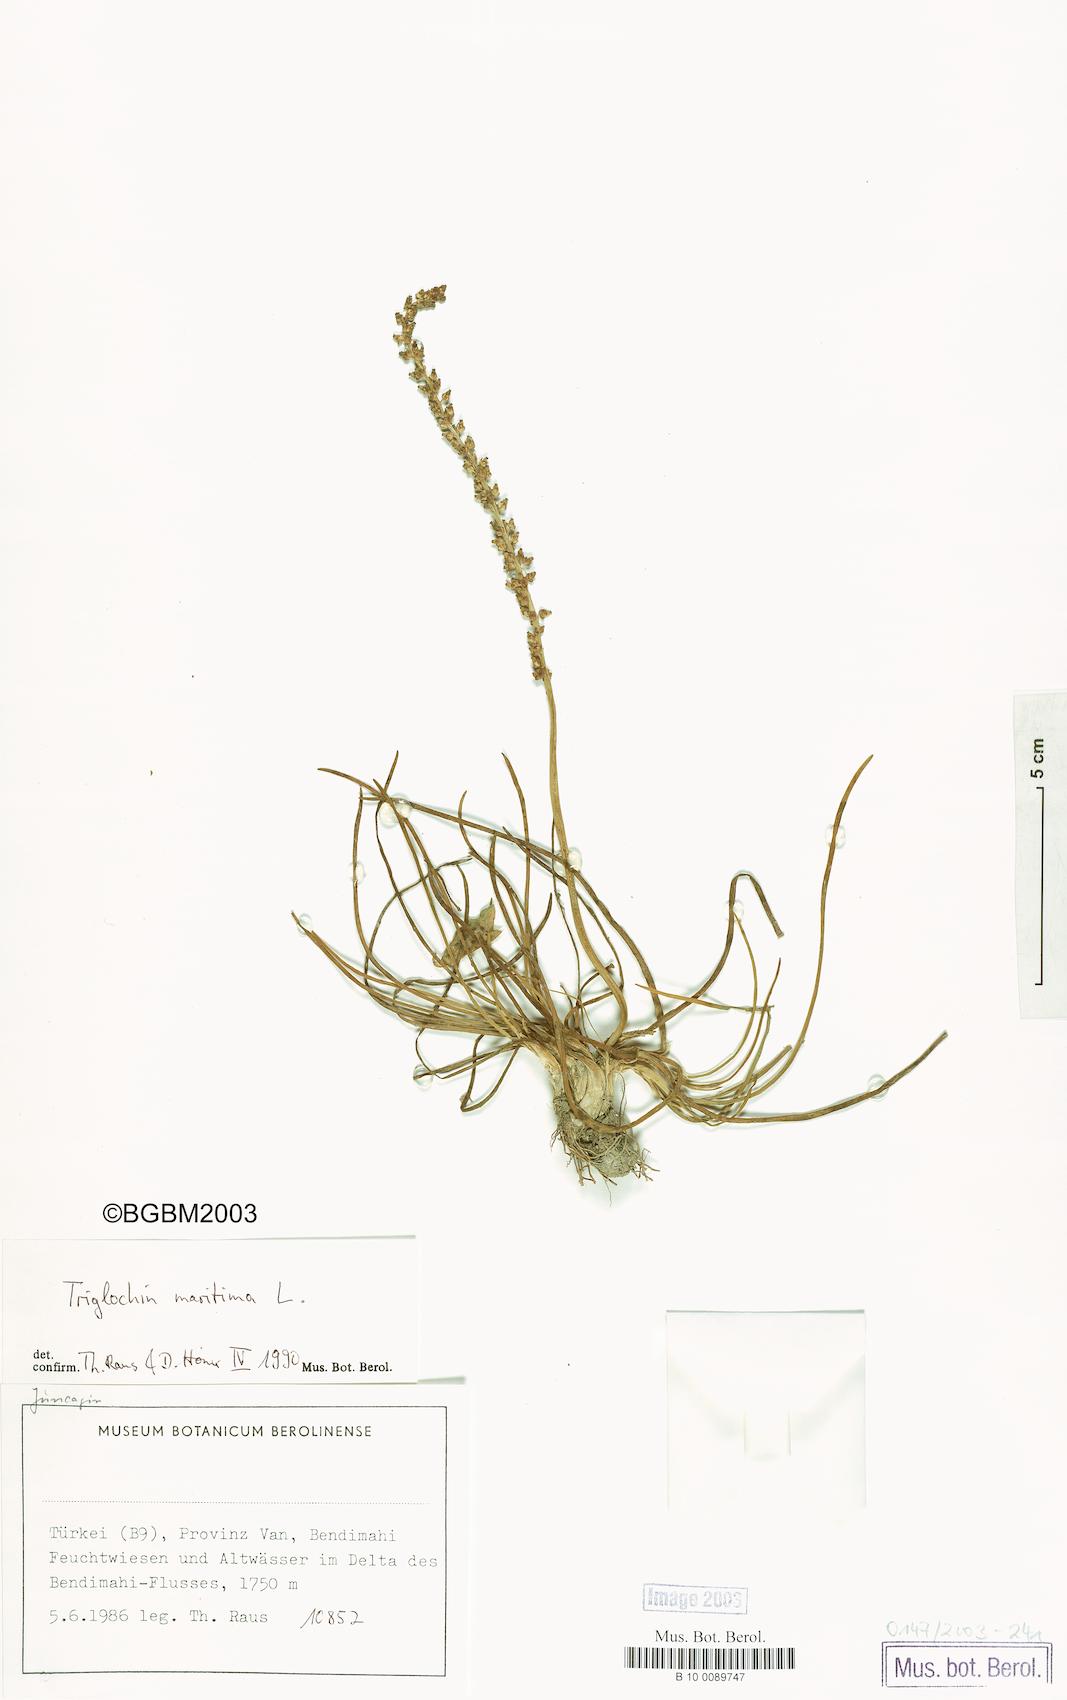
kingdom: Plantae
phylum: Tracheophyta
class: Liliopsida
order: Alismatales
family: Juncaginaceae
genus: Triglochin
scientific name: Triglochin maritima
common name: Sea arrowgrass
